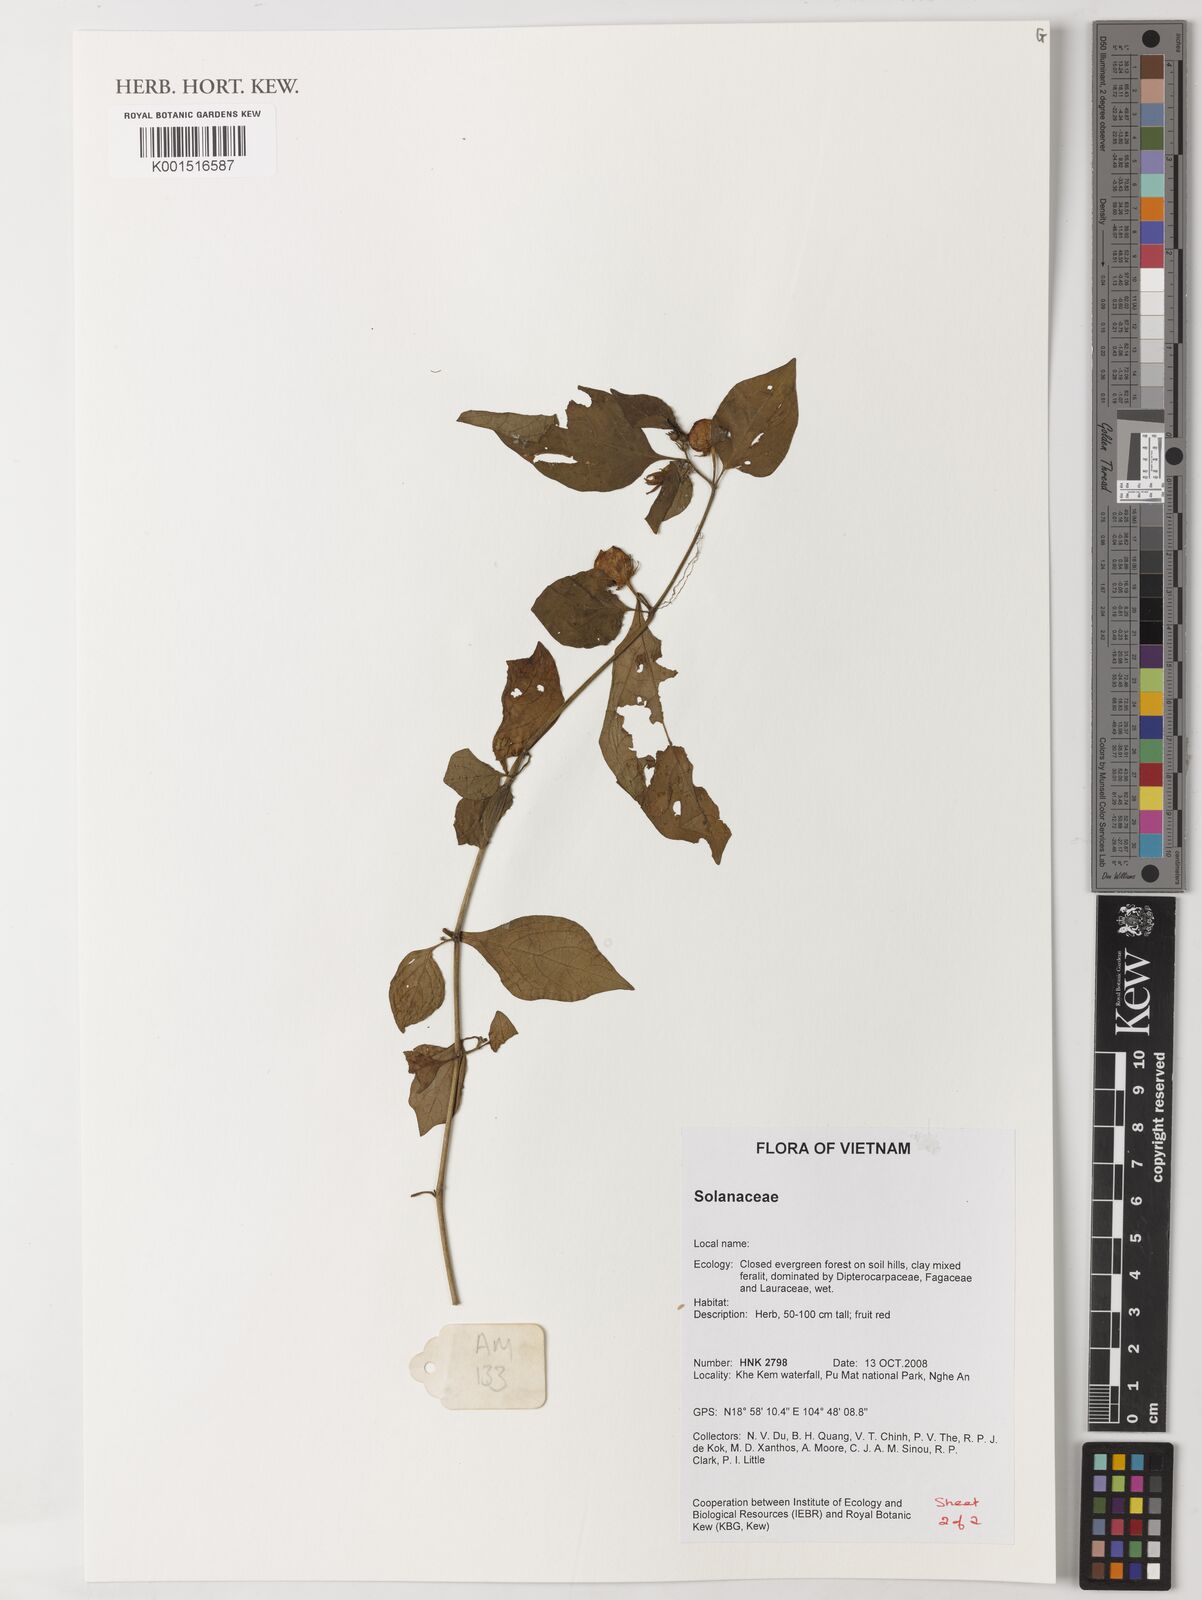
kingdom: Plantae
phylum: Tracheophyta
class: Magnoliopsida
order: Solanales
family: Solanaceae
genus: Lycianthes
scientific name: Lycianthes biflora
